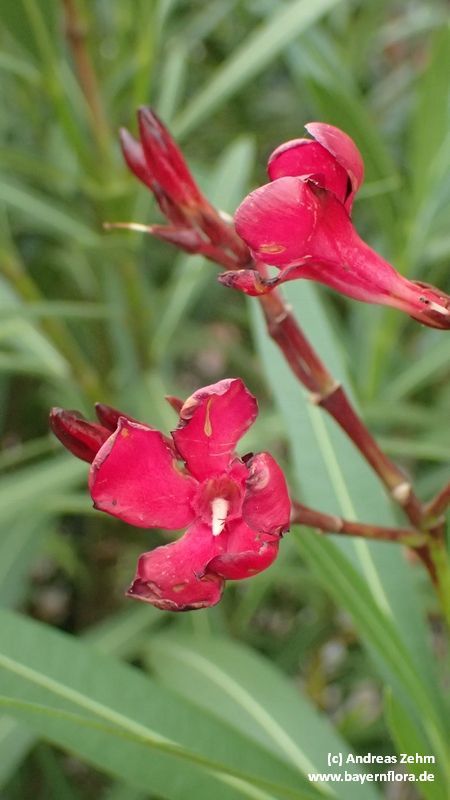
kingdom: Plantae
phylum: Tracheophyta
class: Magnoliopsida
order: Gentianales
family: Apocynaceae
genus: Nerium
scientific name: Nerium oleander
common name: Oleander
